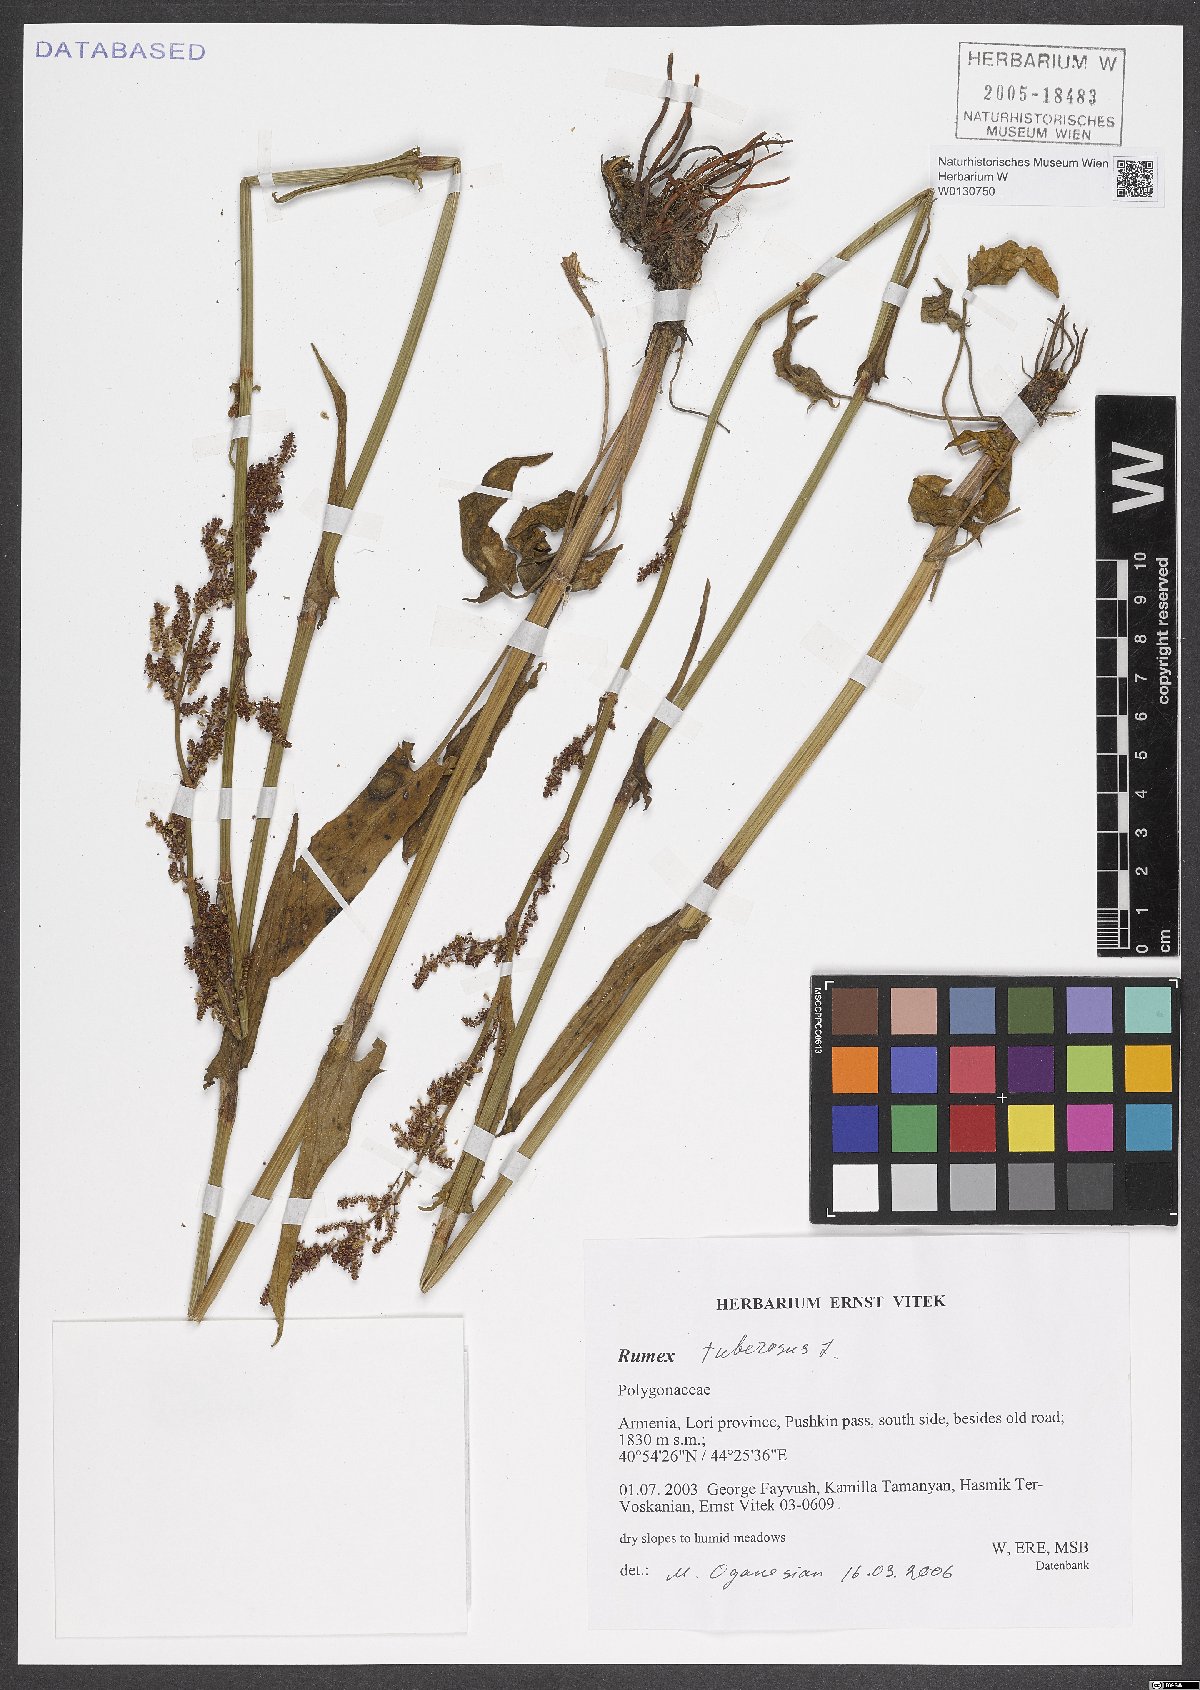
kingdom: Plantae
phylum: Tracheophyta
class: Magnoliopsida
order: Caryophyllales
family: Polygonaceae
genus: Rumex
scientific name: Rumex tuberosus
